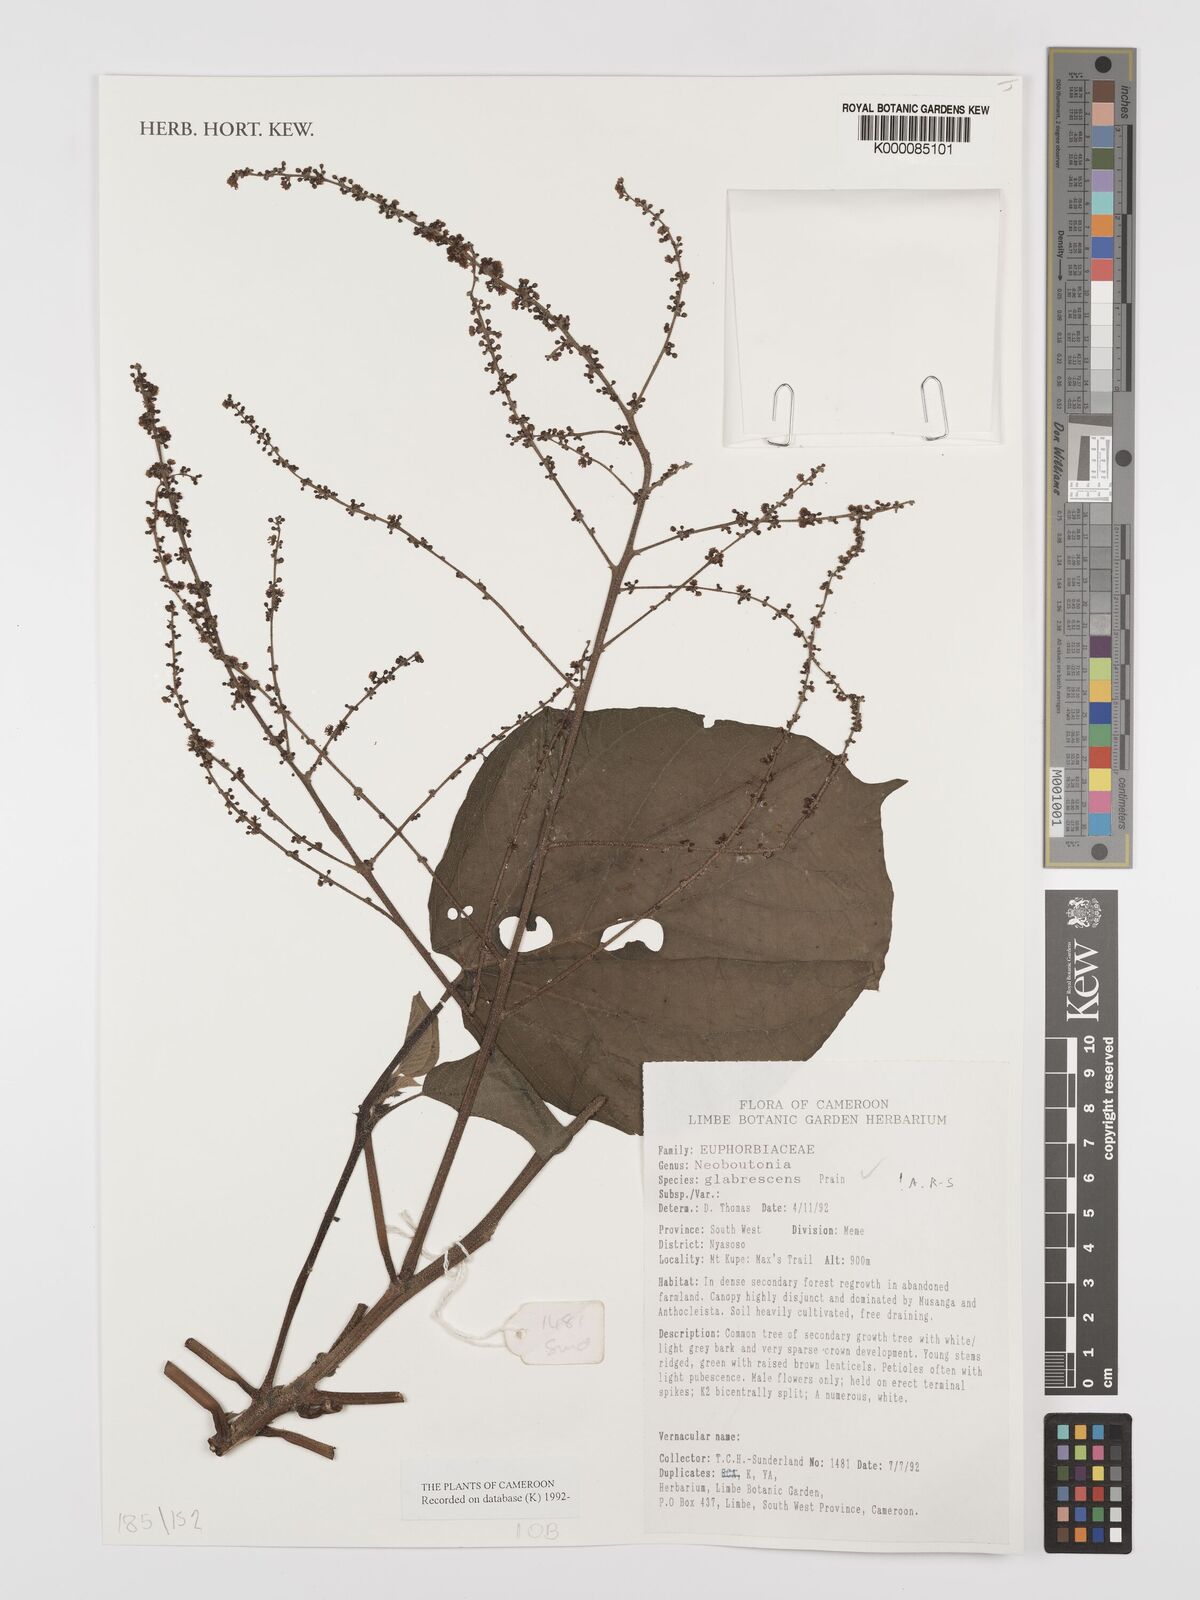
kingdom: Plantae
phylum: Tracheophyta
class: Magnoliopsida
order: Malpighiales
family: Euphorbiaceae
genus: Neoboutonia
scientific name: Neoboutonia mannii
